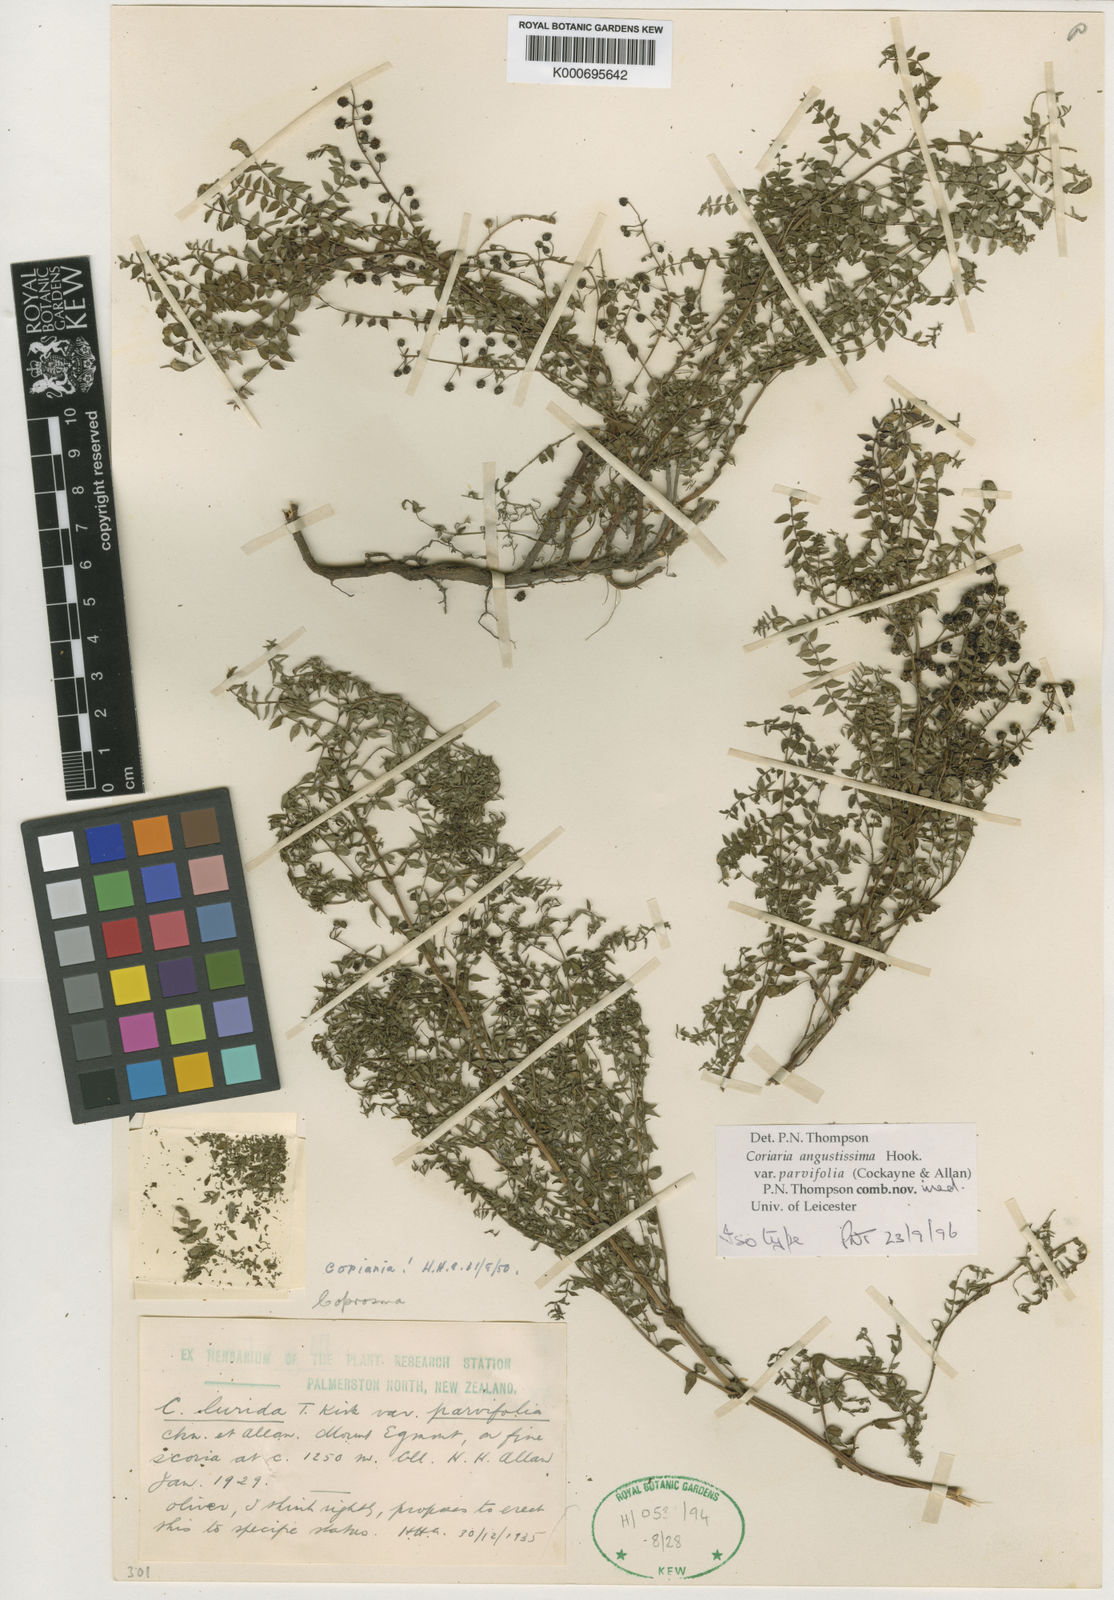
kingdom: Plantae
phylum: Tracheophyta
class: Magnoliopsida
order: Cucurbitales
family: Coriariaceae
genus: Coriaria
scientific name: Coriaria plumosa
